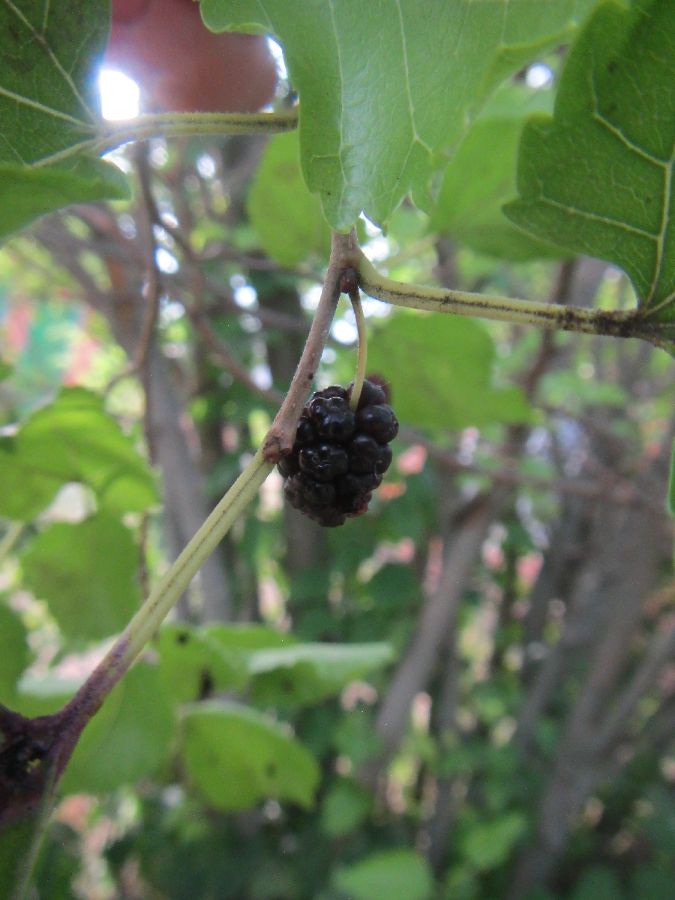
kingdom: Plantae
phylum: Tracheophyta
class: Magnoliopsida
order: Rosales
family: Moraceae
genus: Morus
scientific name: Morus nigra
